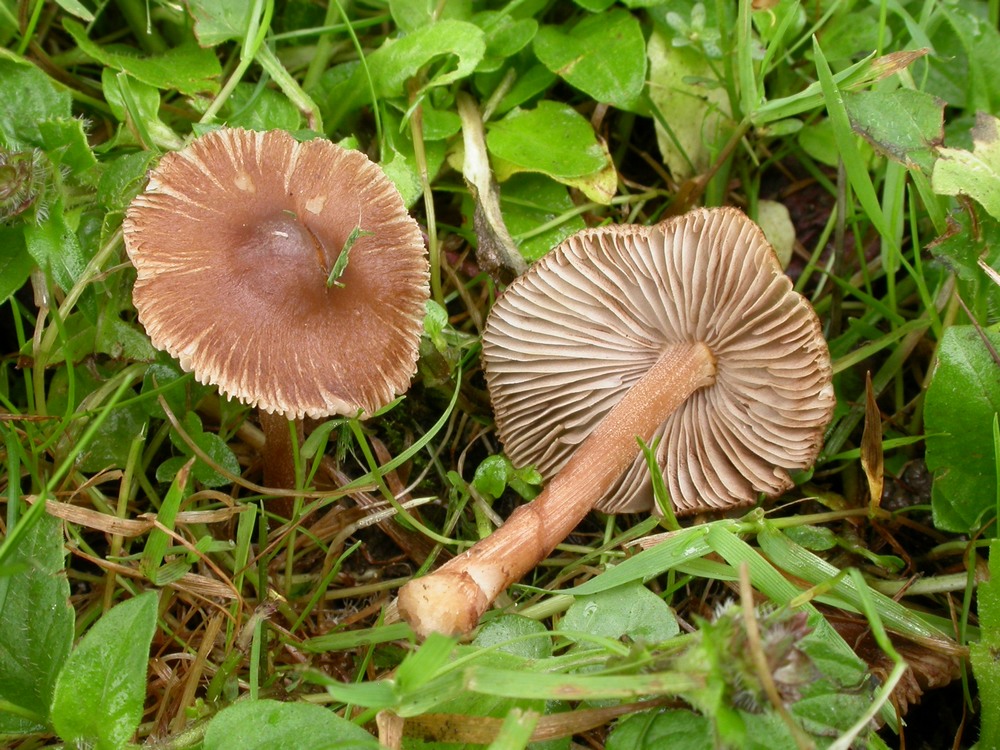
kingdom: Fungi
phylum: Basidiomycota
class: Agaricomycetes
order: Agaricales
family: Inocybaceae
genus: Inocybe
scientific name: Inocybe asterospora
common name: stjernesporet trævlhat
